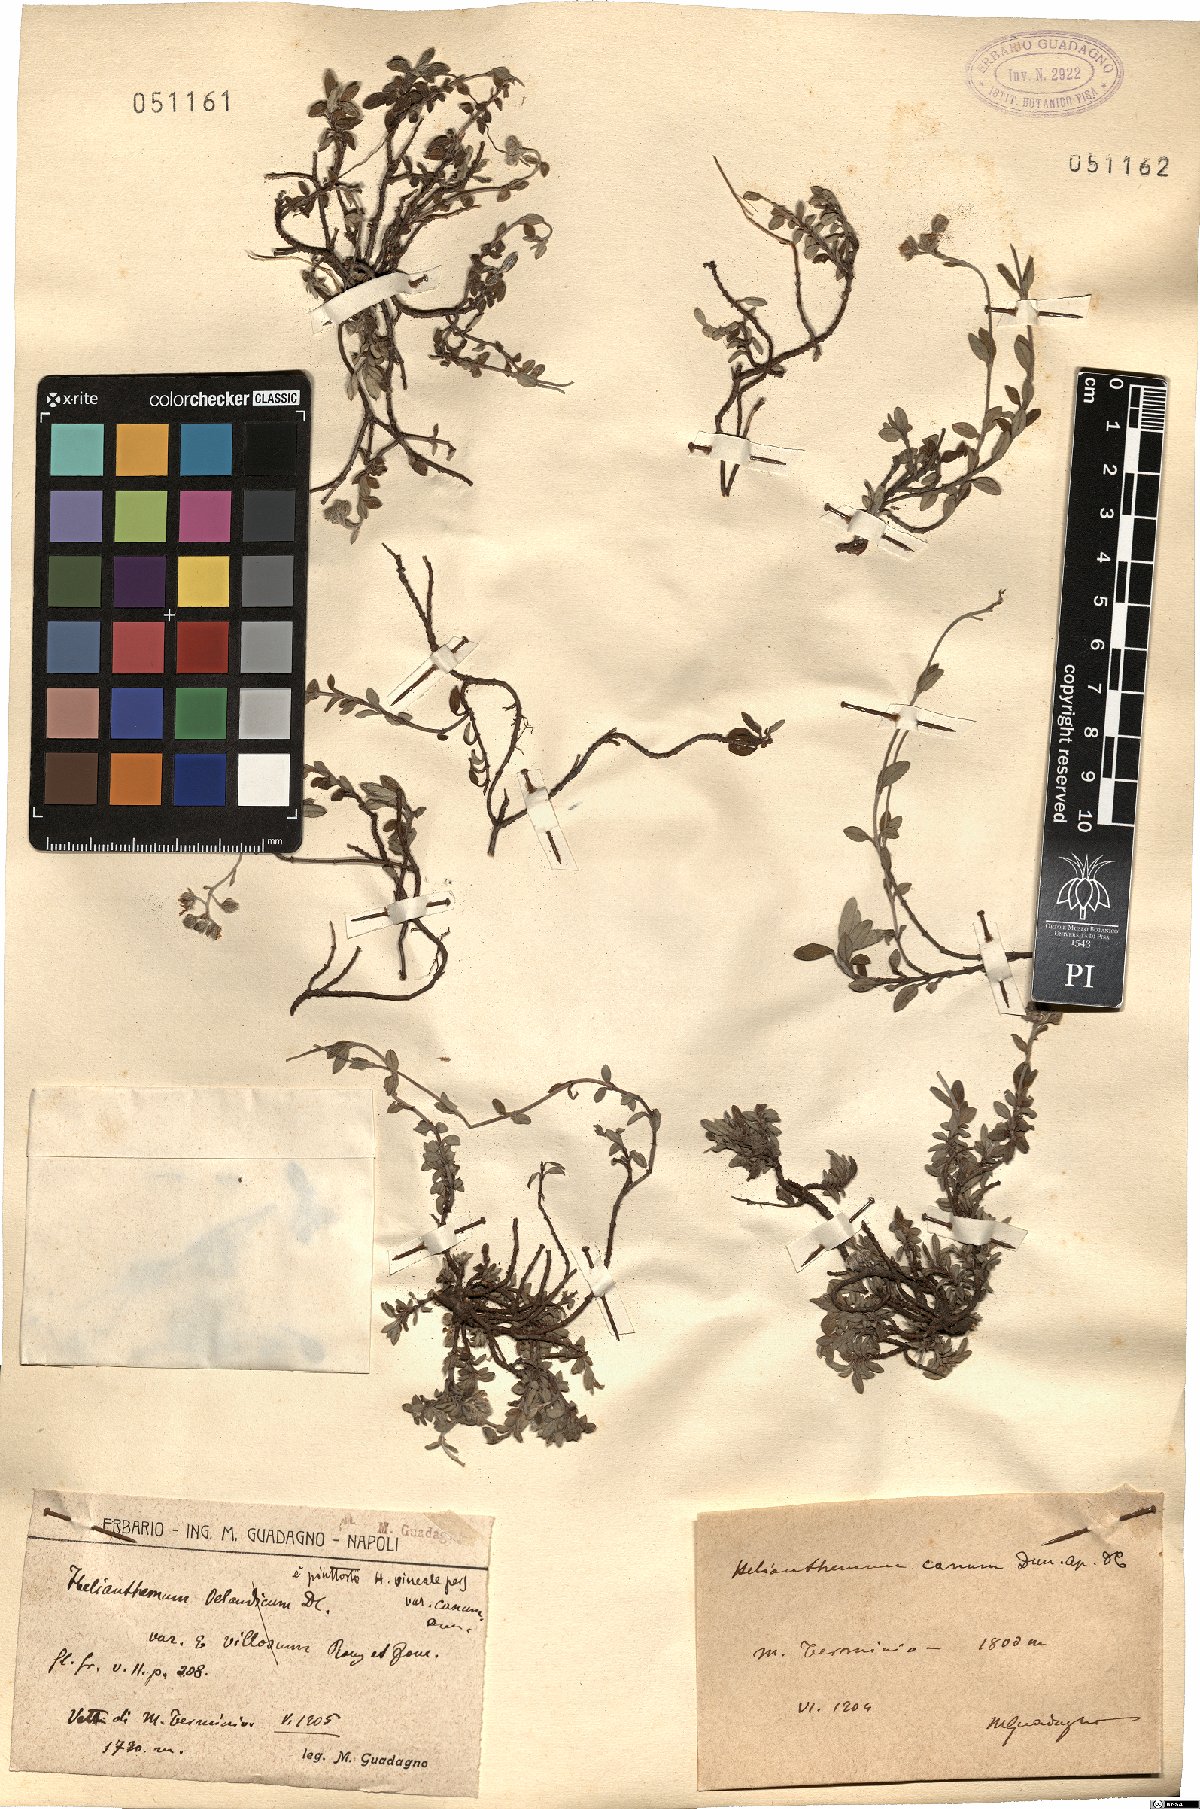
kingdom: Plantae
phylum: Tracheophyta
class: Magnoliopsida
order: Malvales
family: Cistaceae
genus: Helianthemum
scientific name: Helianthemum canum
